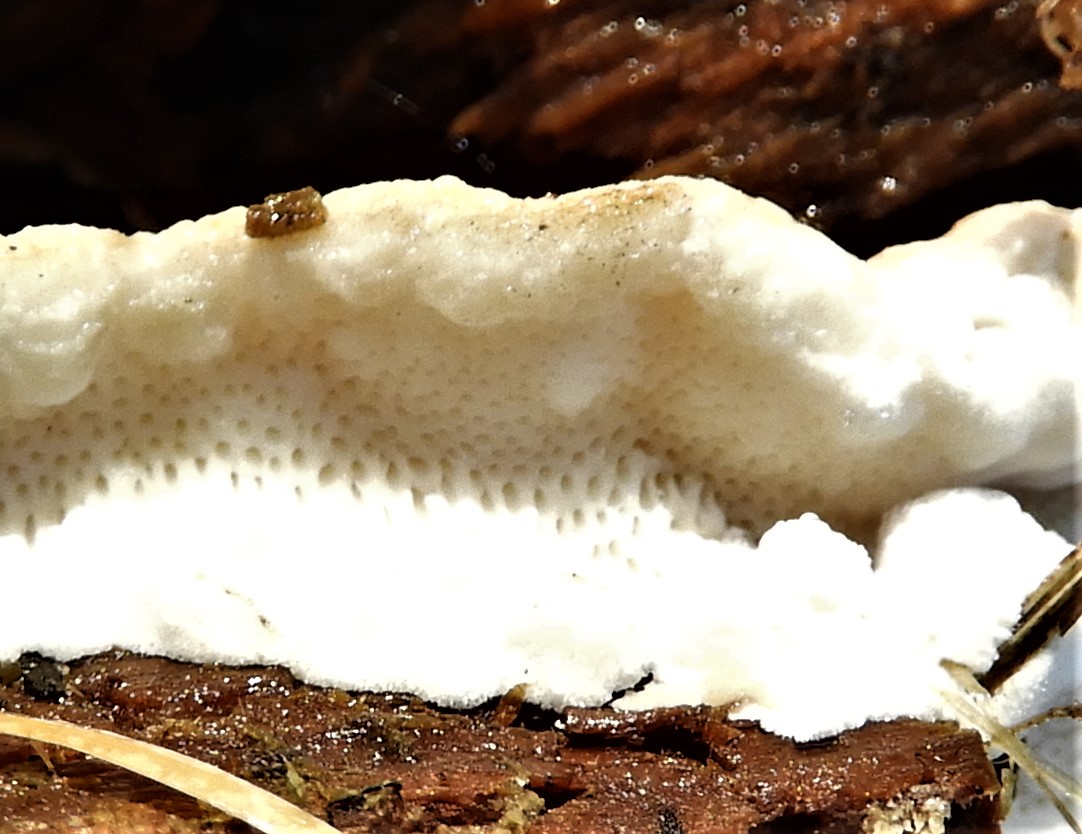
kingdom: Fungi
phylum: Basidiomycota
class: Agaricomycetes
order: Polyporales
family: Fomitopsidaceae
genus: Neoantrodia
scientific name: Neoantrodia serialis
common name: række-sejporesvamp
